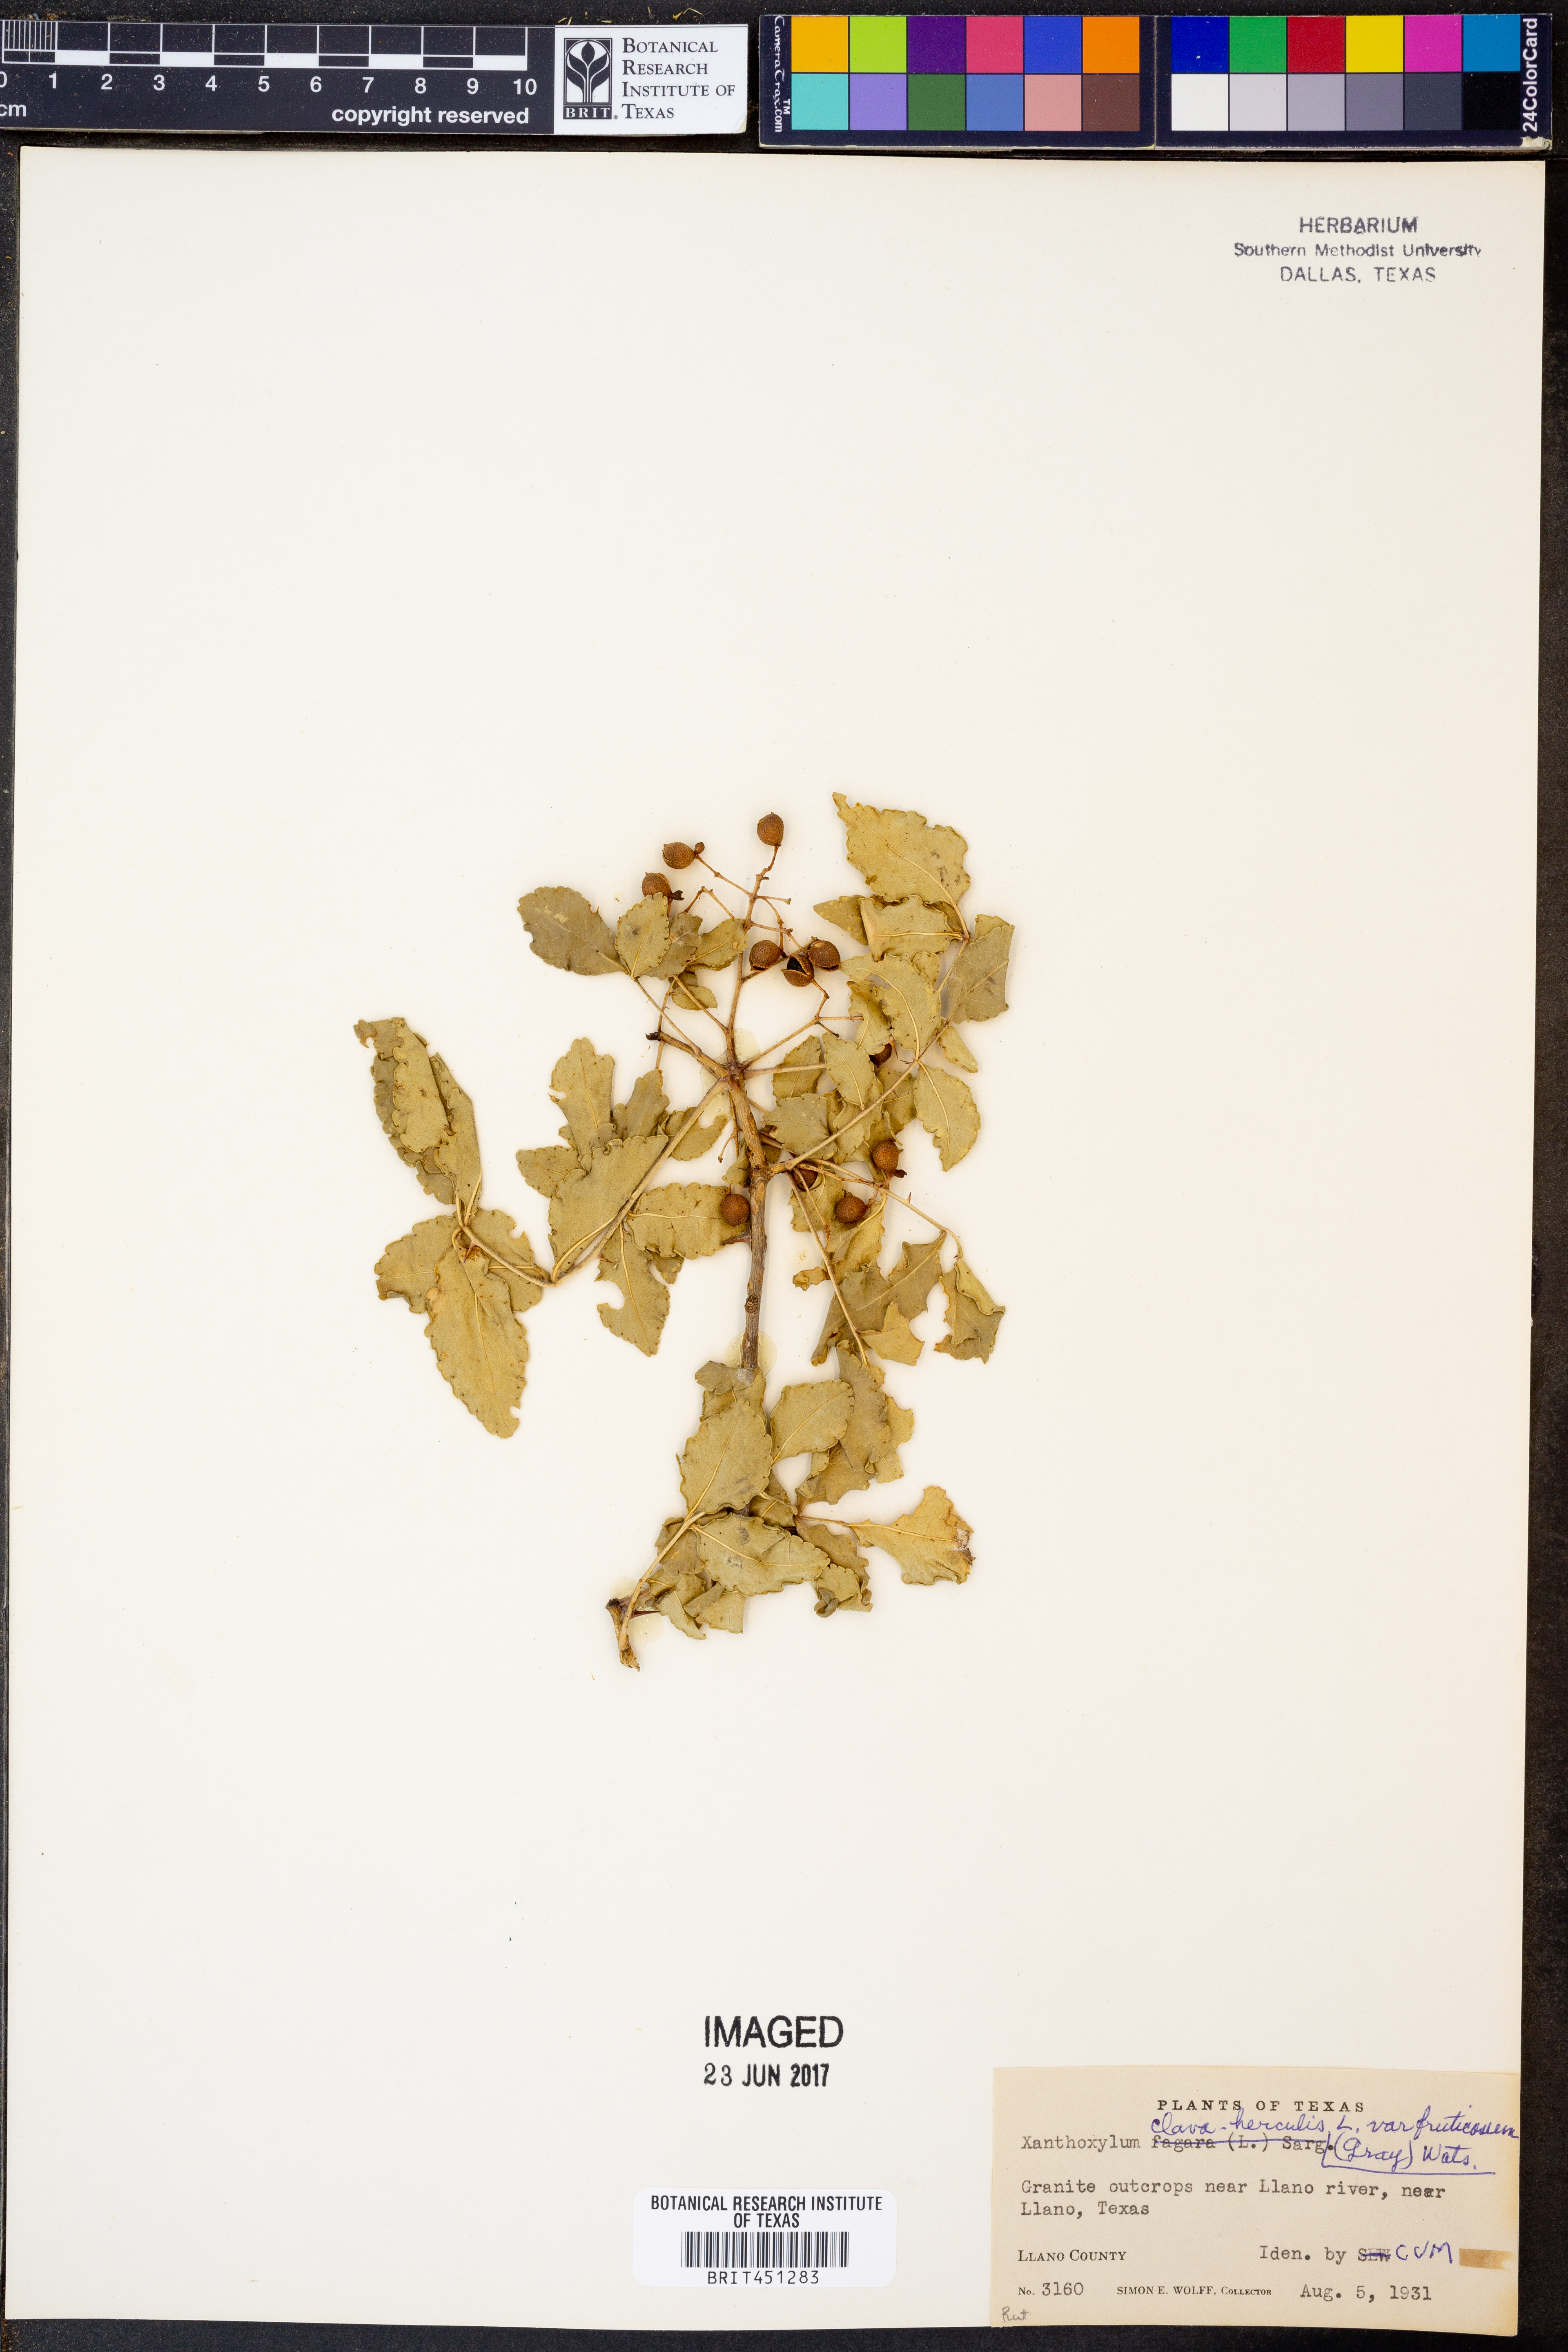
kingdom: Plantae
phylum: Tracheophyta
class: Magnoliopsida
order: Sapindales
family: Rutaceae
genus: Zanthoxylum
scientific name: Zanthoxylum clava-herculis
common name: Hercules'-club
